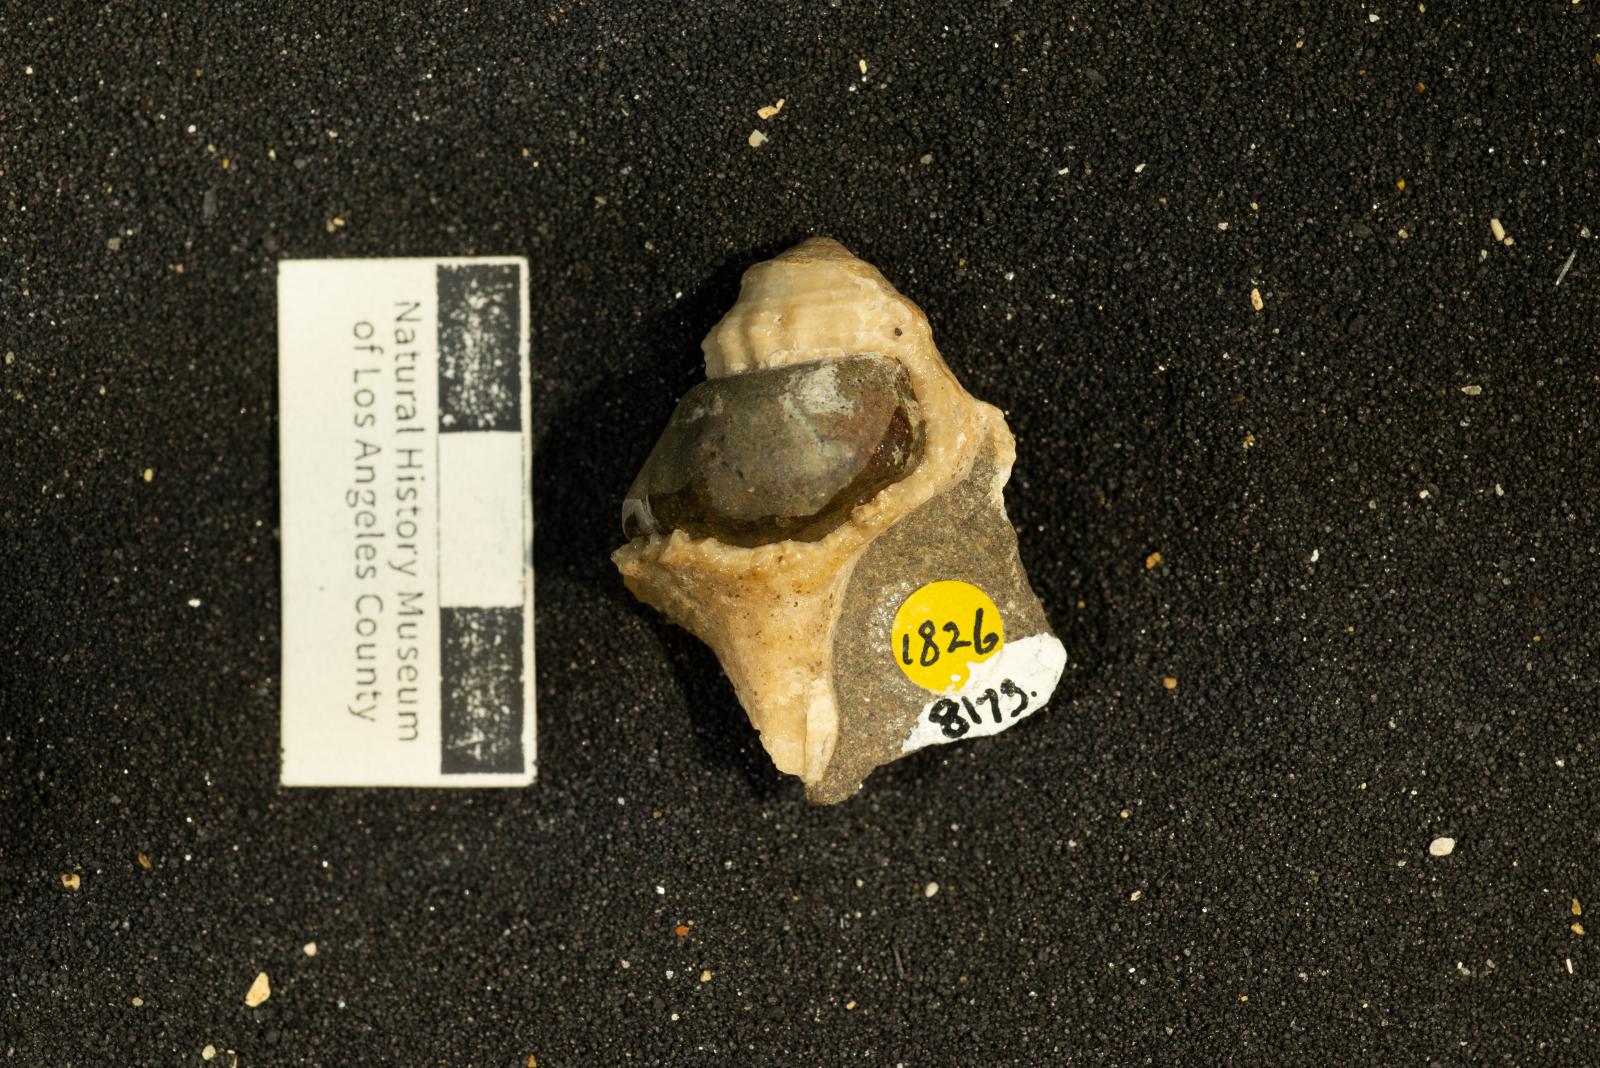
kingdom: Animalia
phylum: Mollusca
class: Gastropoda
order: Neogastropoda
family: Perissityidae
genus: Perissitys
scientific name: Perissitys pacifica
